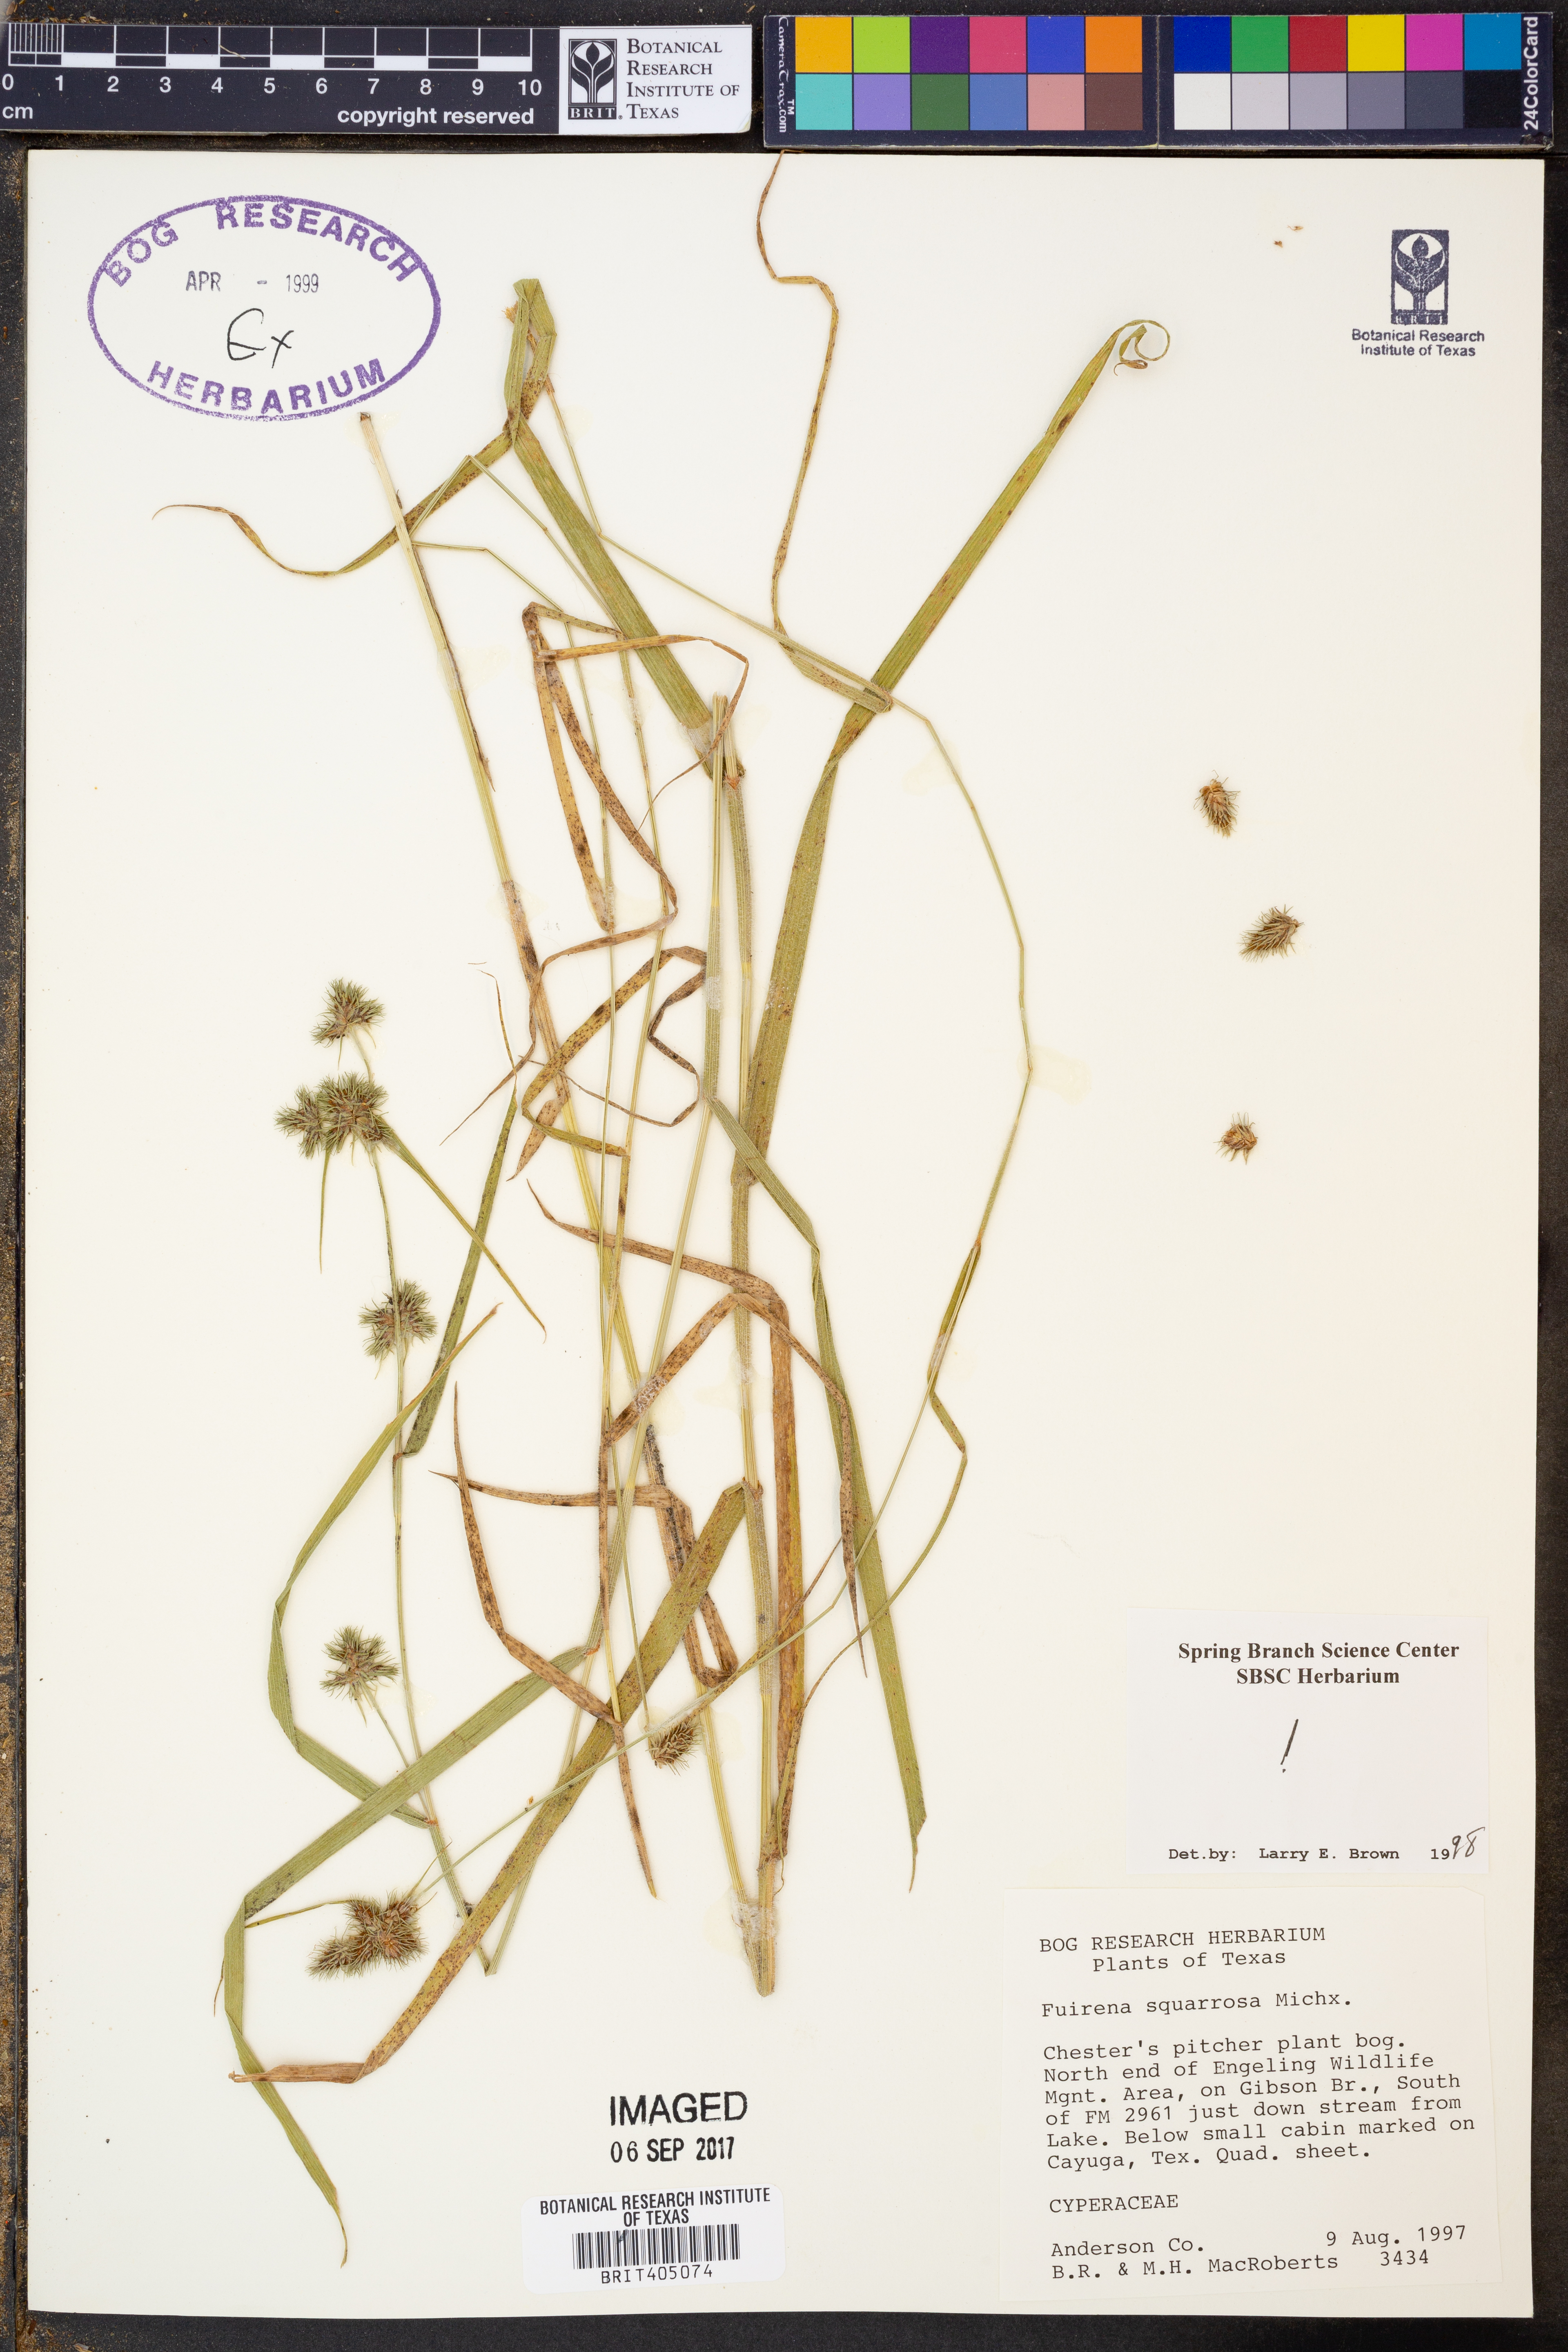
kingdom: Plantae
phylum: Tracheophyta
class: Liliopsida
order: Poales
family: Cyperaceae
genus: Fuirena
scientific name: Fuirena squarrosa
